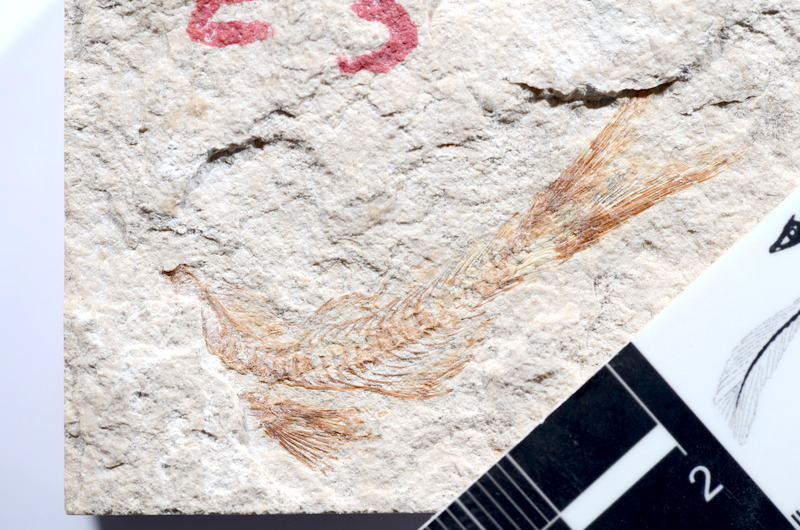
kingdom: Animalia
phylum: Chordata
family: Ascalaboidae
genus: Tharsis
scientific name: Tharsis dubius
